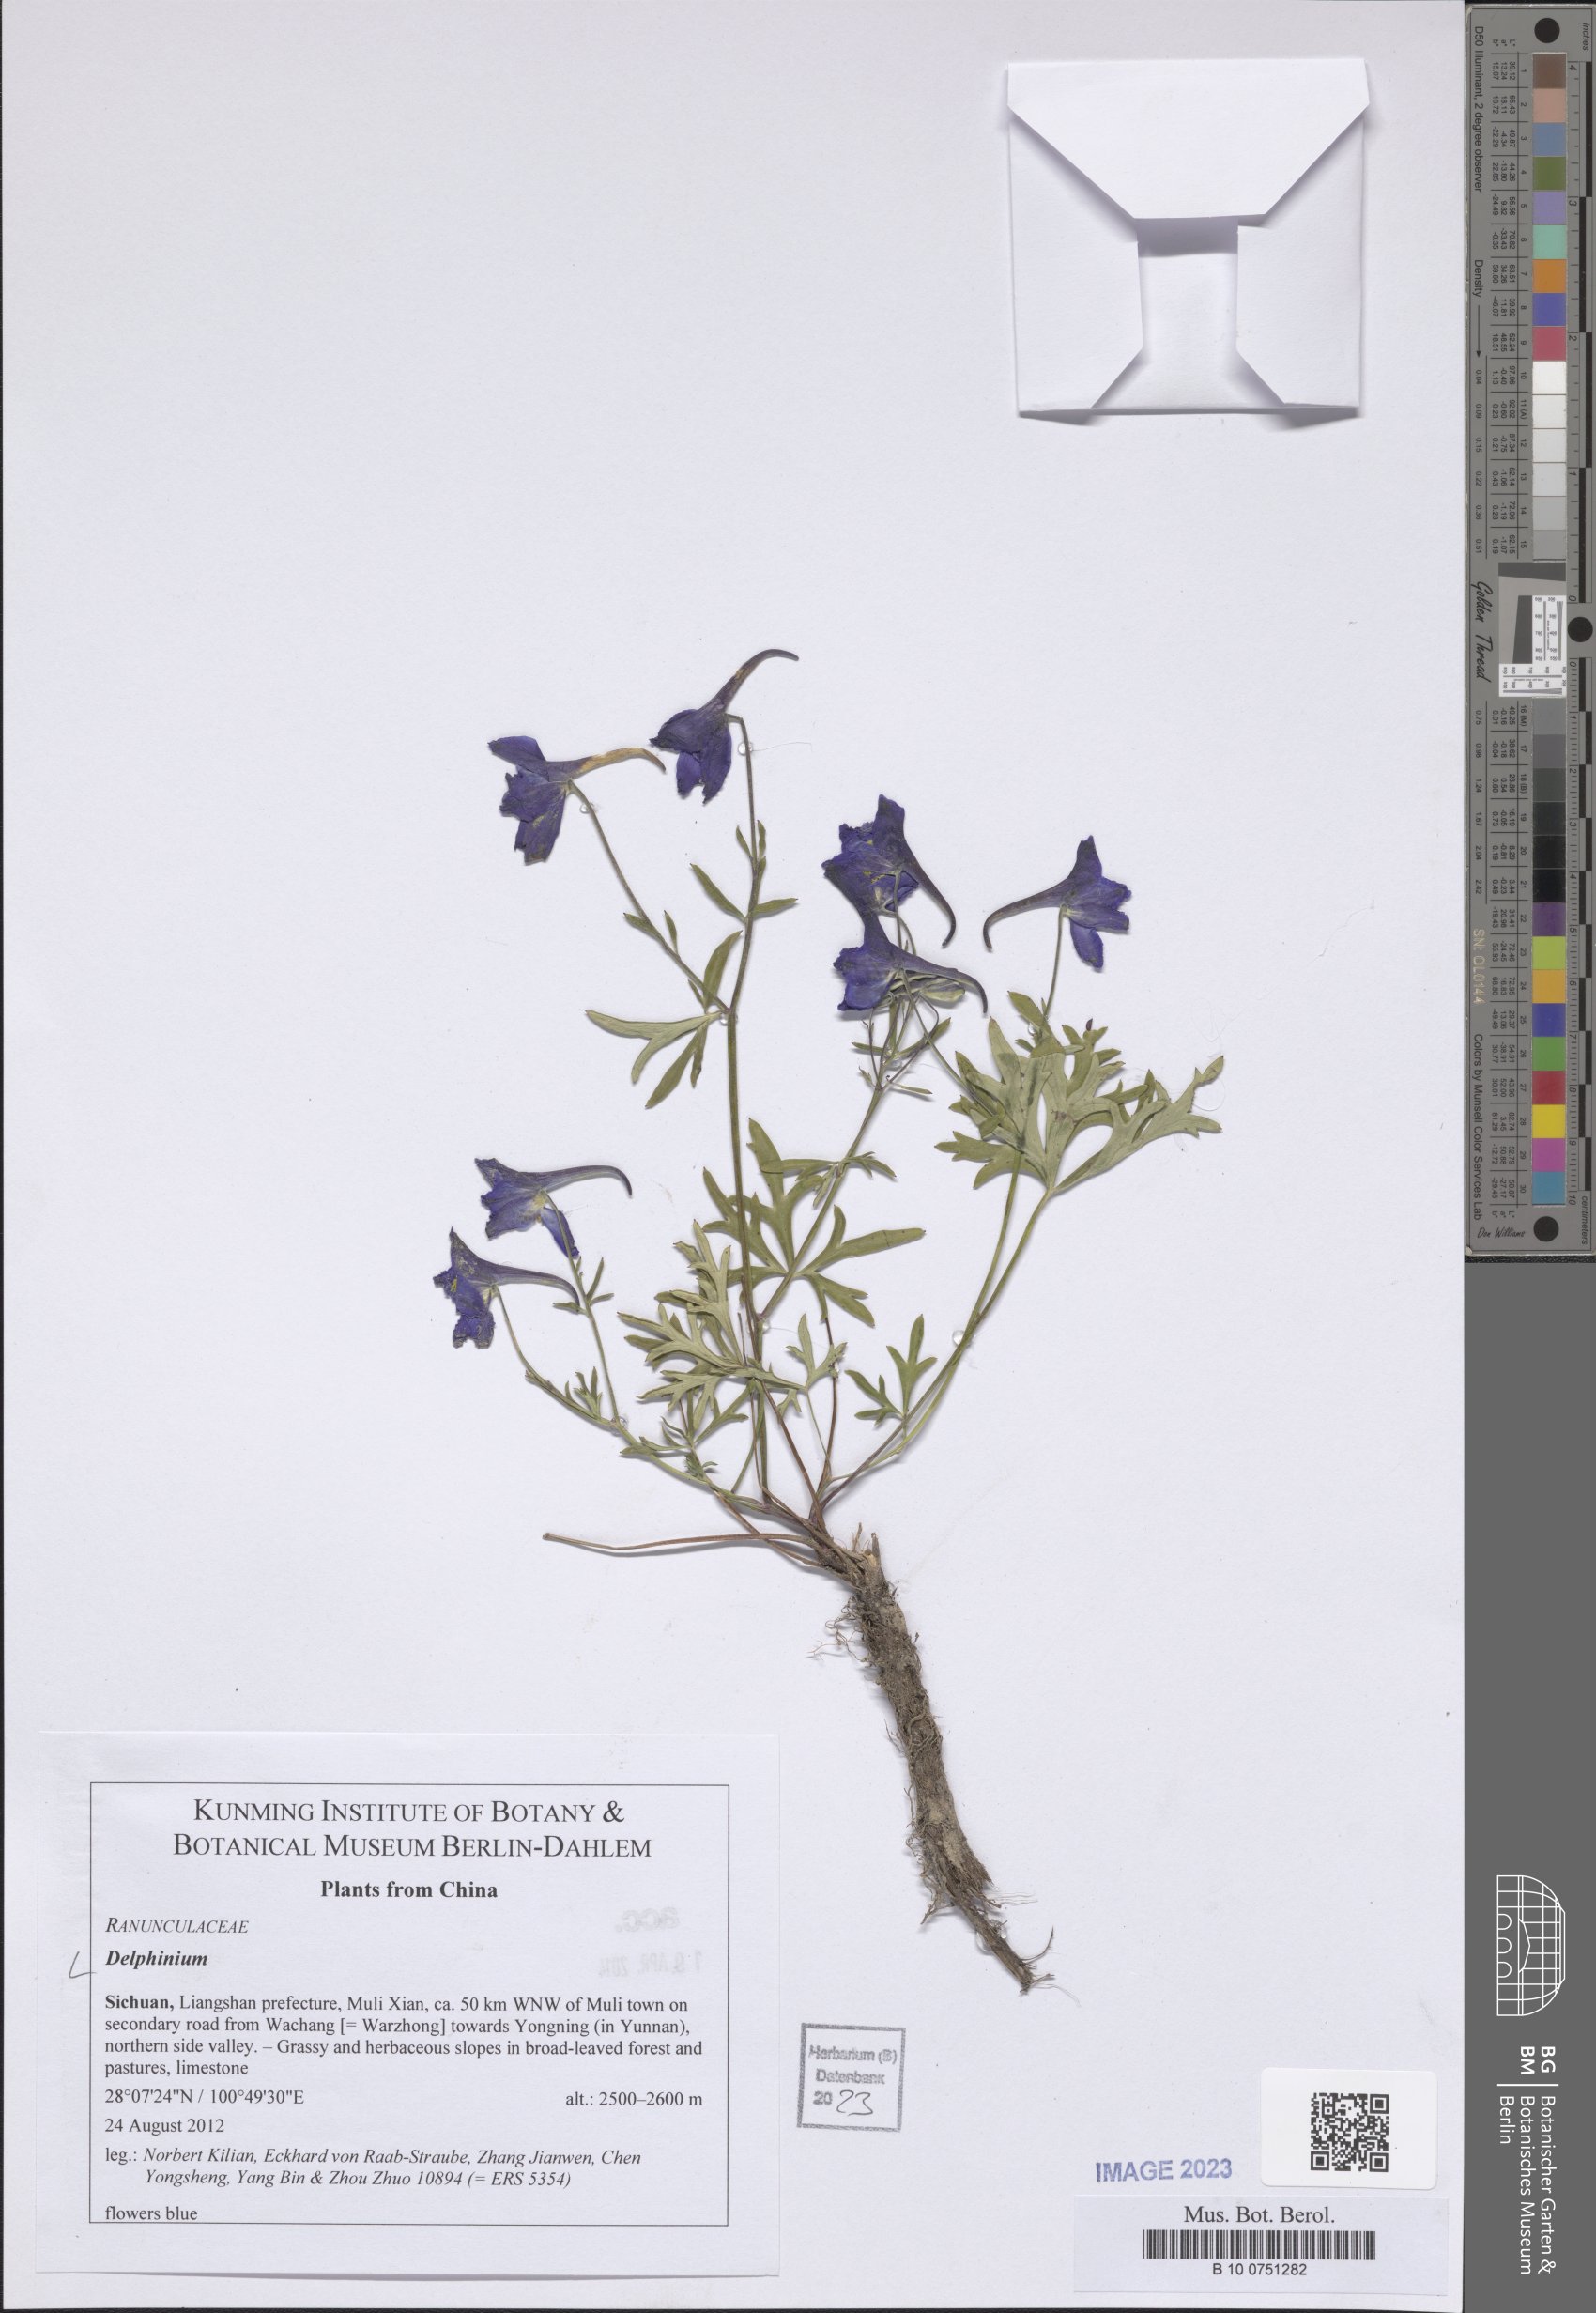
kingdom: Plantae
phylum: Tracheophyta
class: Magnoliopsida
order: Ranunculales
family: Ranunculaceae
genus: Delphinium
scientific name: Delphinium
